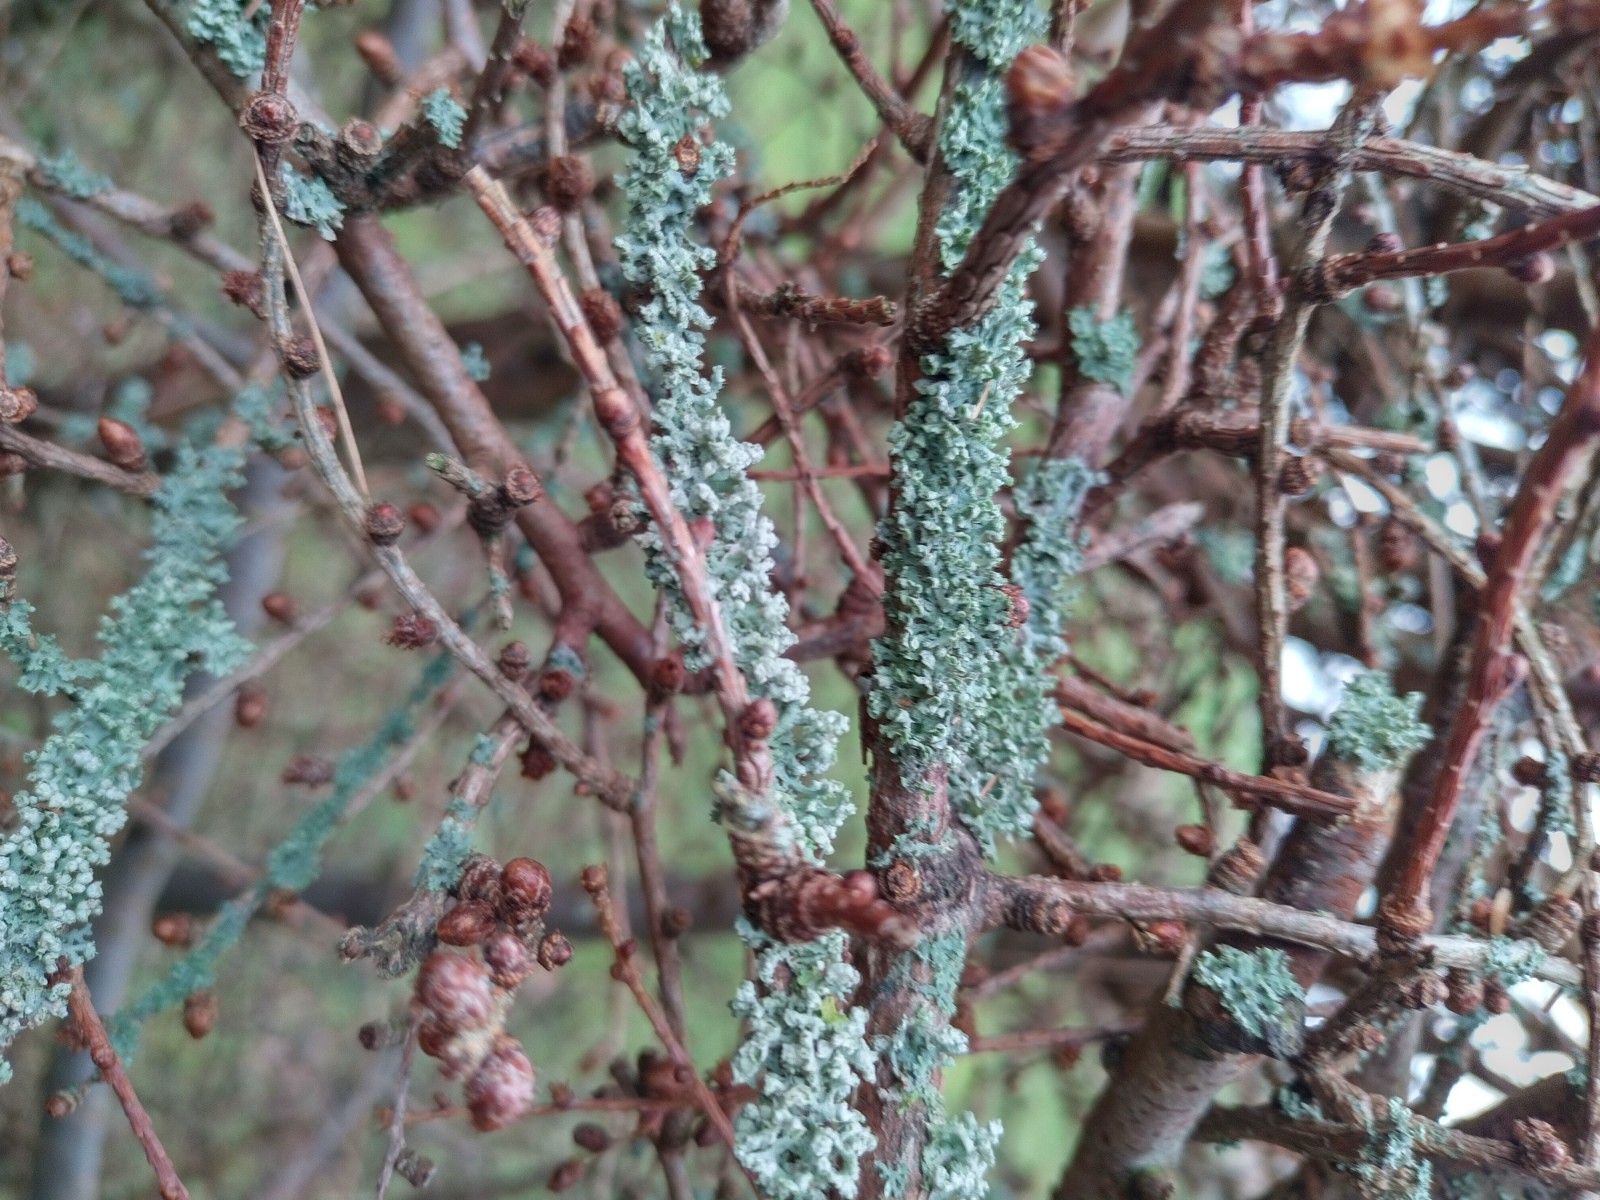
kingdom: Fungi
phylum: Ascomycota
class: Lecanoromycetes
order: Caliciales
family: Physciaceae
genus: Physcia
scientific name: Physcia tenella
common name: spæd rosetlav
